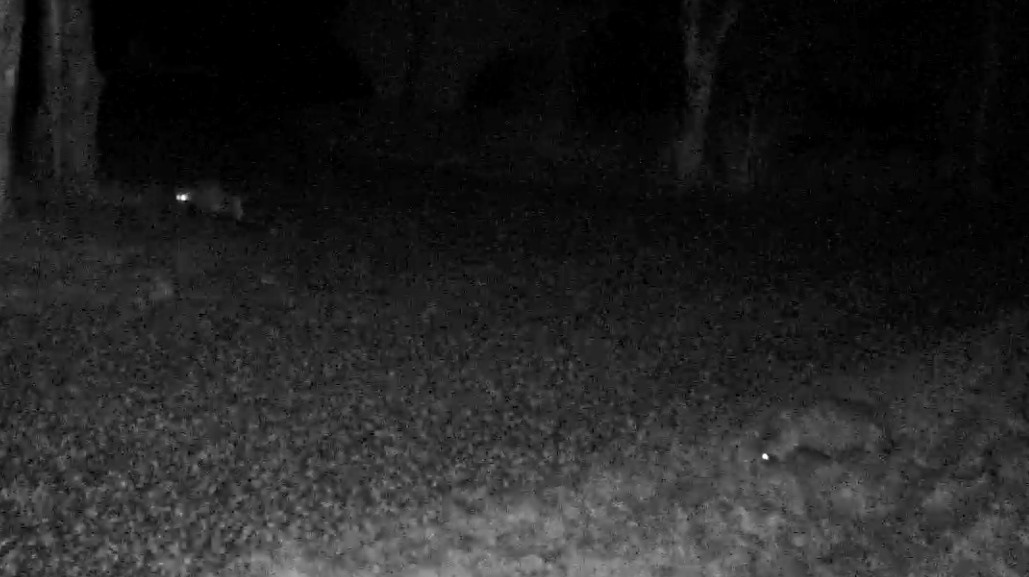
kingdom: Animalia
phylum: Chordata
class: Mammalia
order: Carnivora
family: Canidae
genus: Nyctereutes
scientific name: Nyctereutes procyonoides
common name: Mårhund
